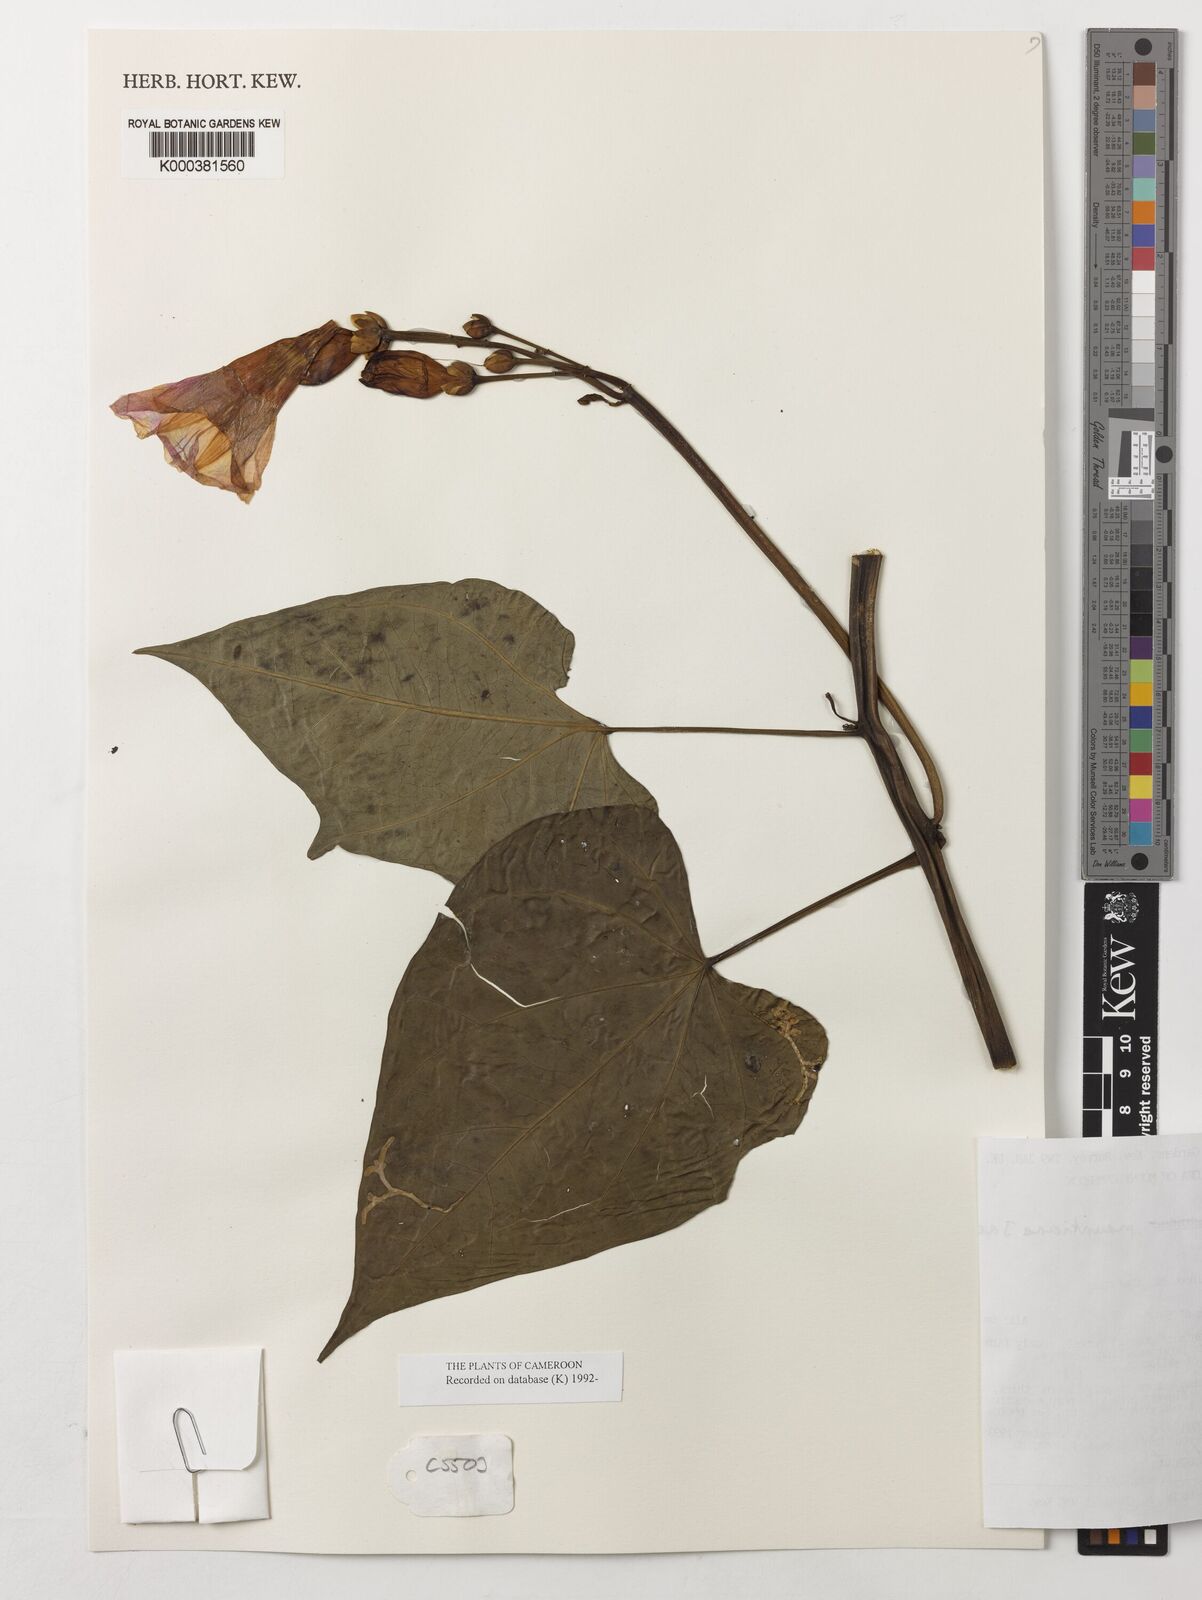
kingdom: Plantae
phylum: Tracheophyta
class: Magnoliopsida
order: Solanales
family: Convolvulaceae
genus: Ipomoea
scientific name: Ipomoea mauritiana
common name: Mauritanian convolvulus
